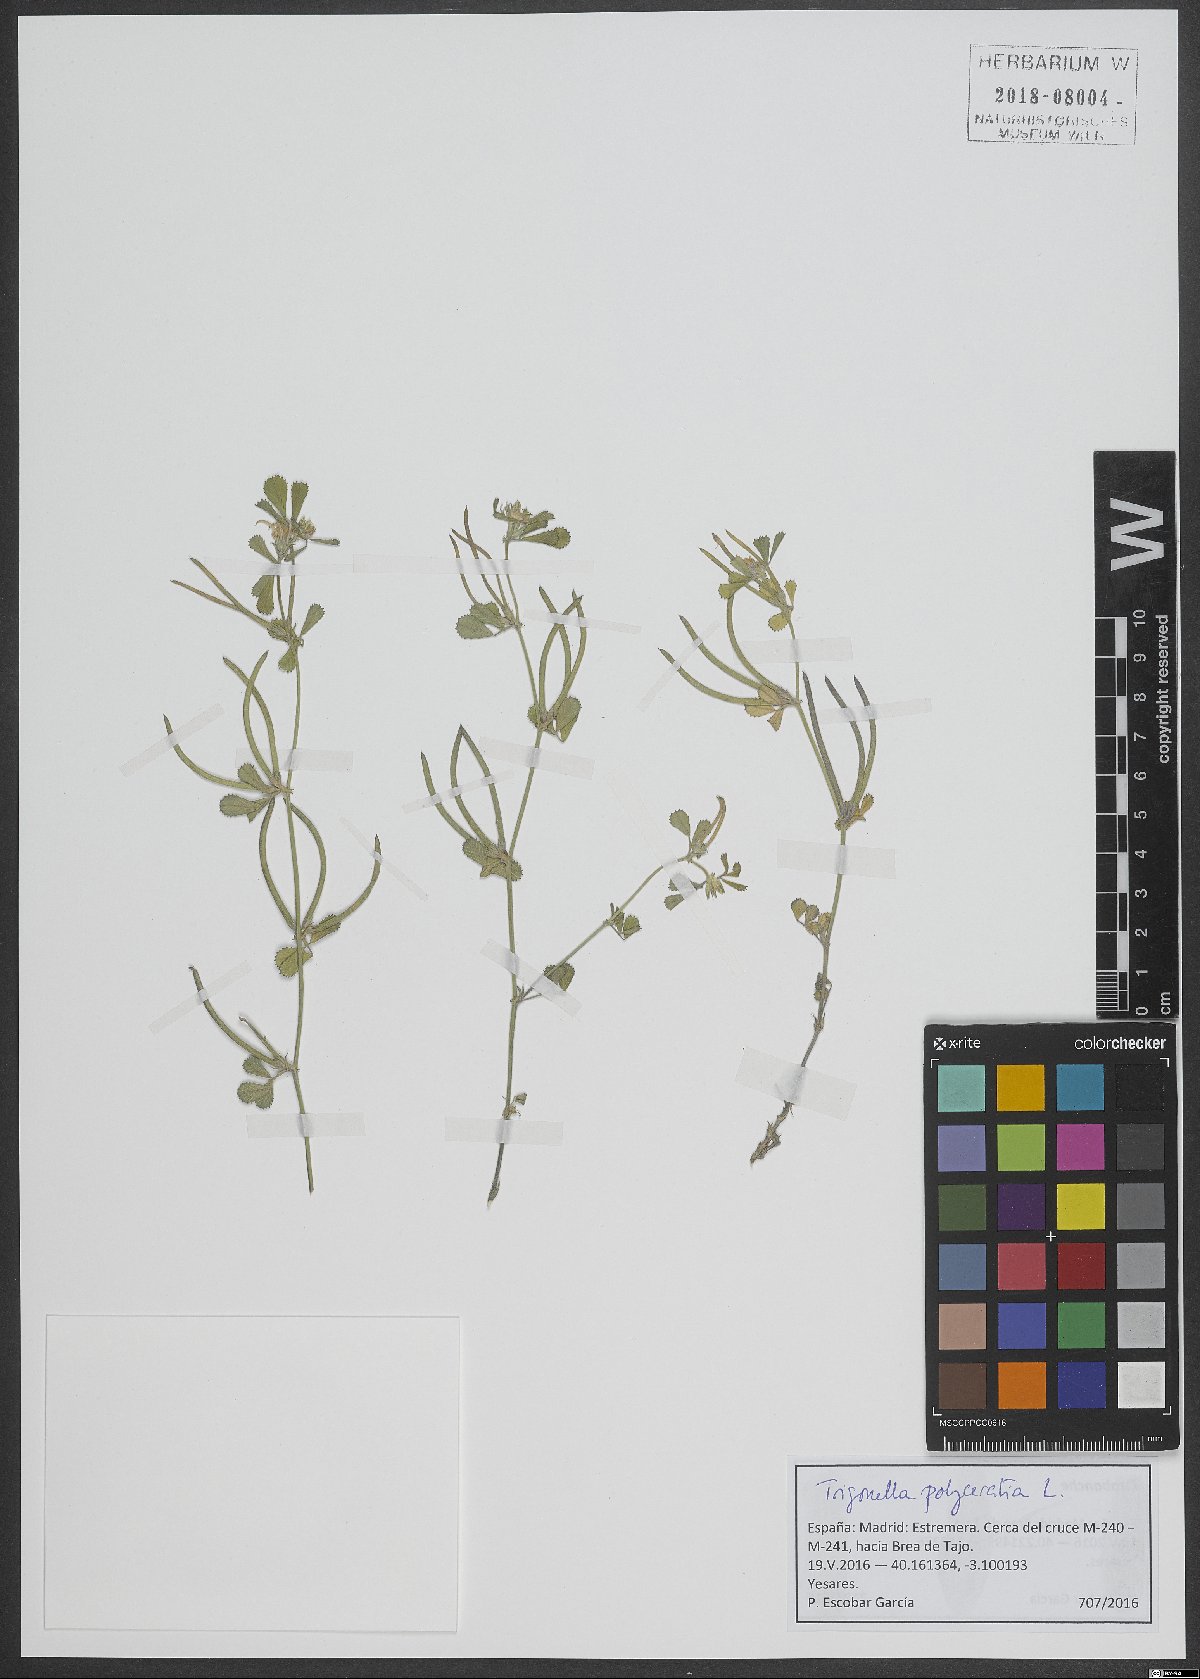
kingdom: Plantae
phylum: Tracheophyta
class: Magnoliopsida
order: Fabales
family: Fabaceae
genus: Medicago
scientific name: Medicago polyceratia
